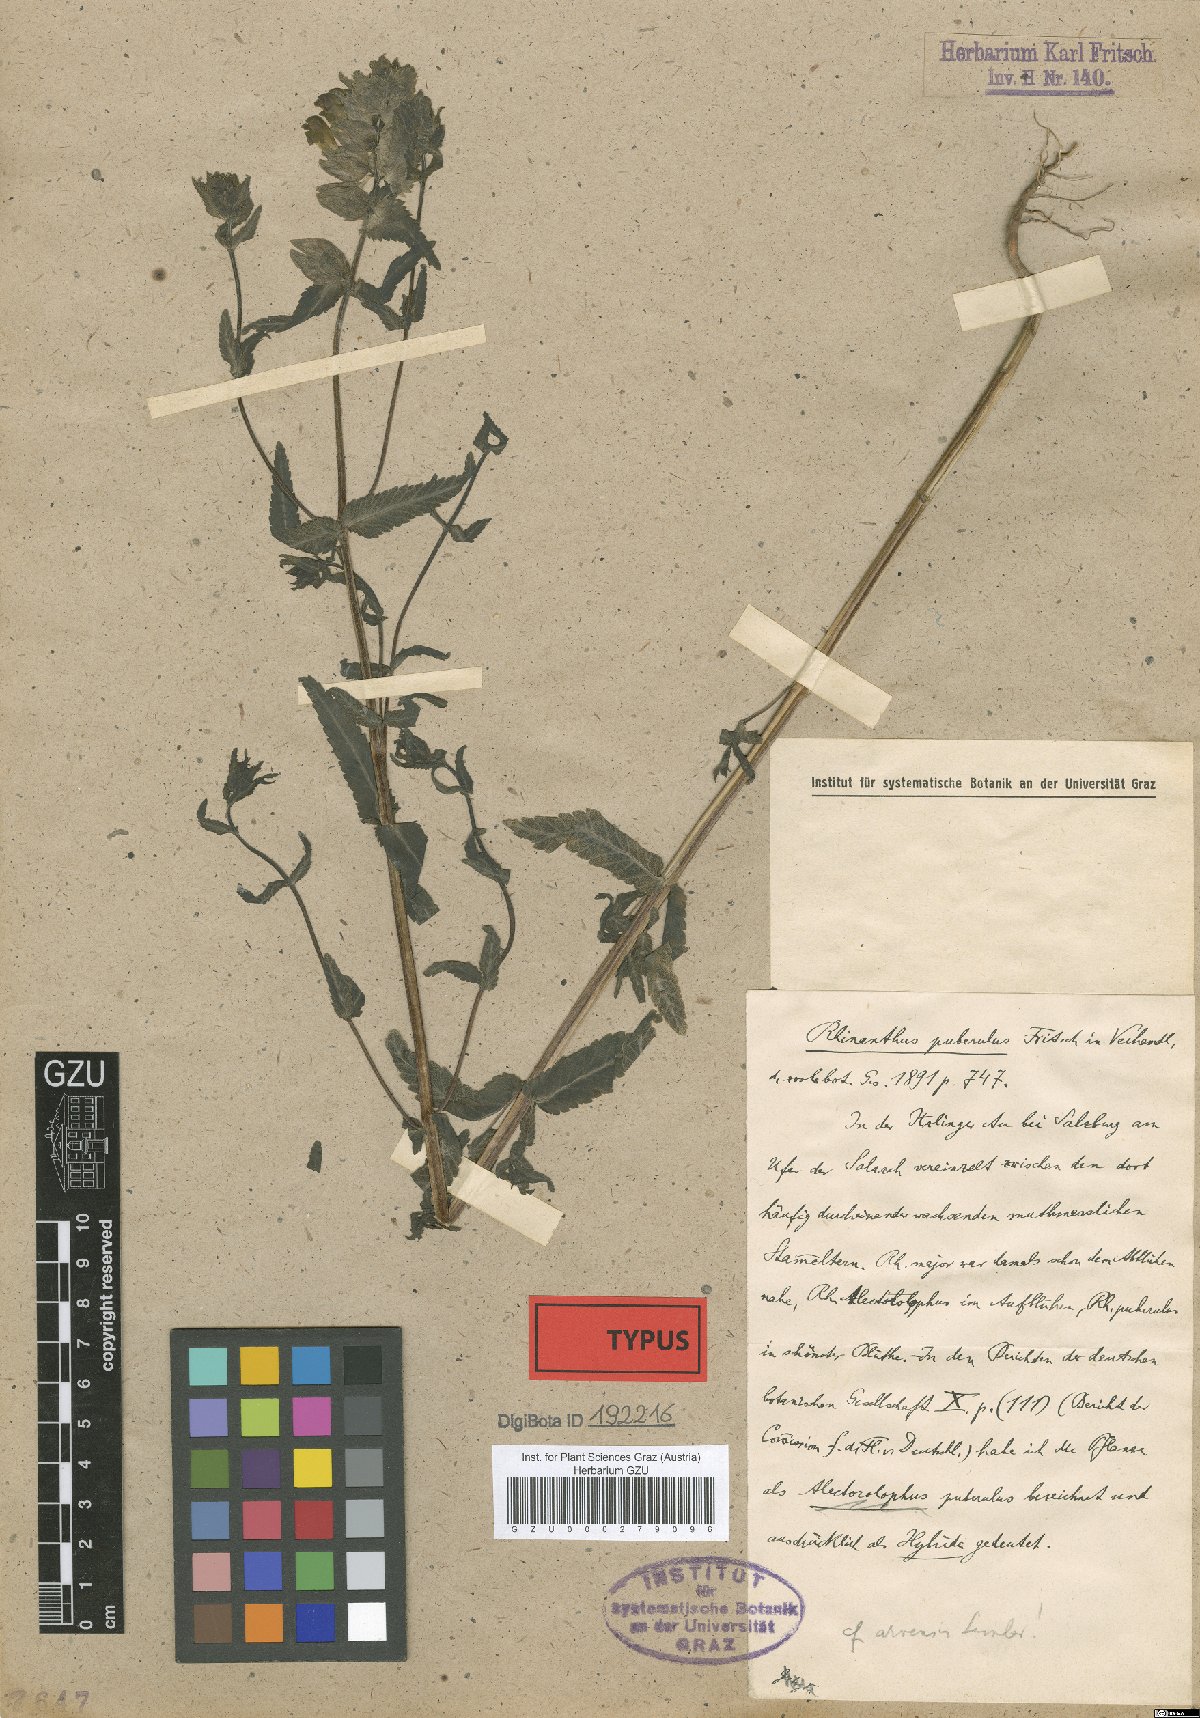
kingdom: Plantae
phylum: Tracheophyta
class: Magnoliopsida
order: Lamiales
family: Scrophulariaceae
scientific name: Scrophulariaceae
